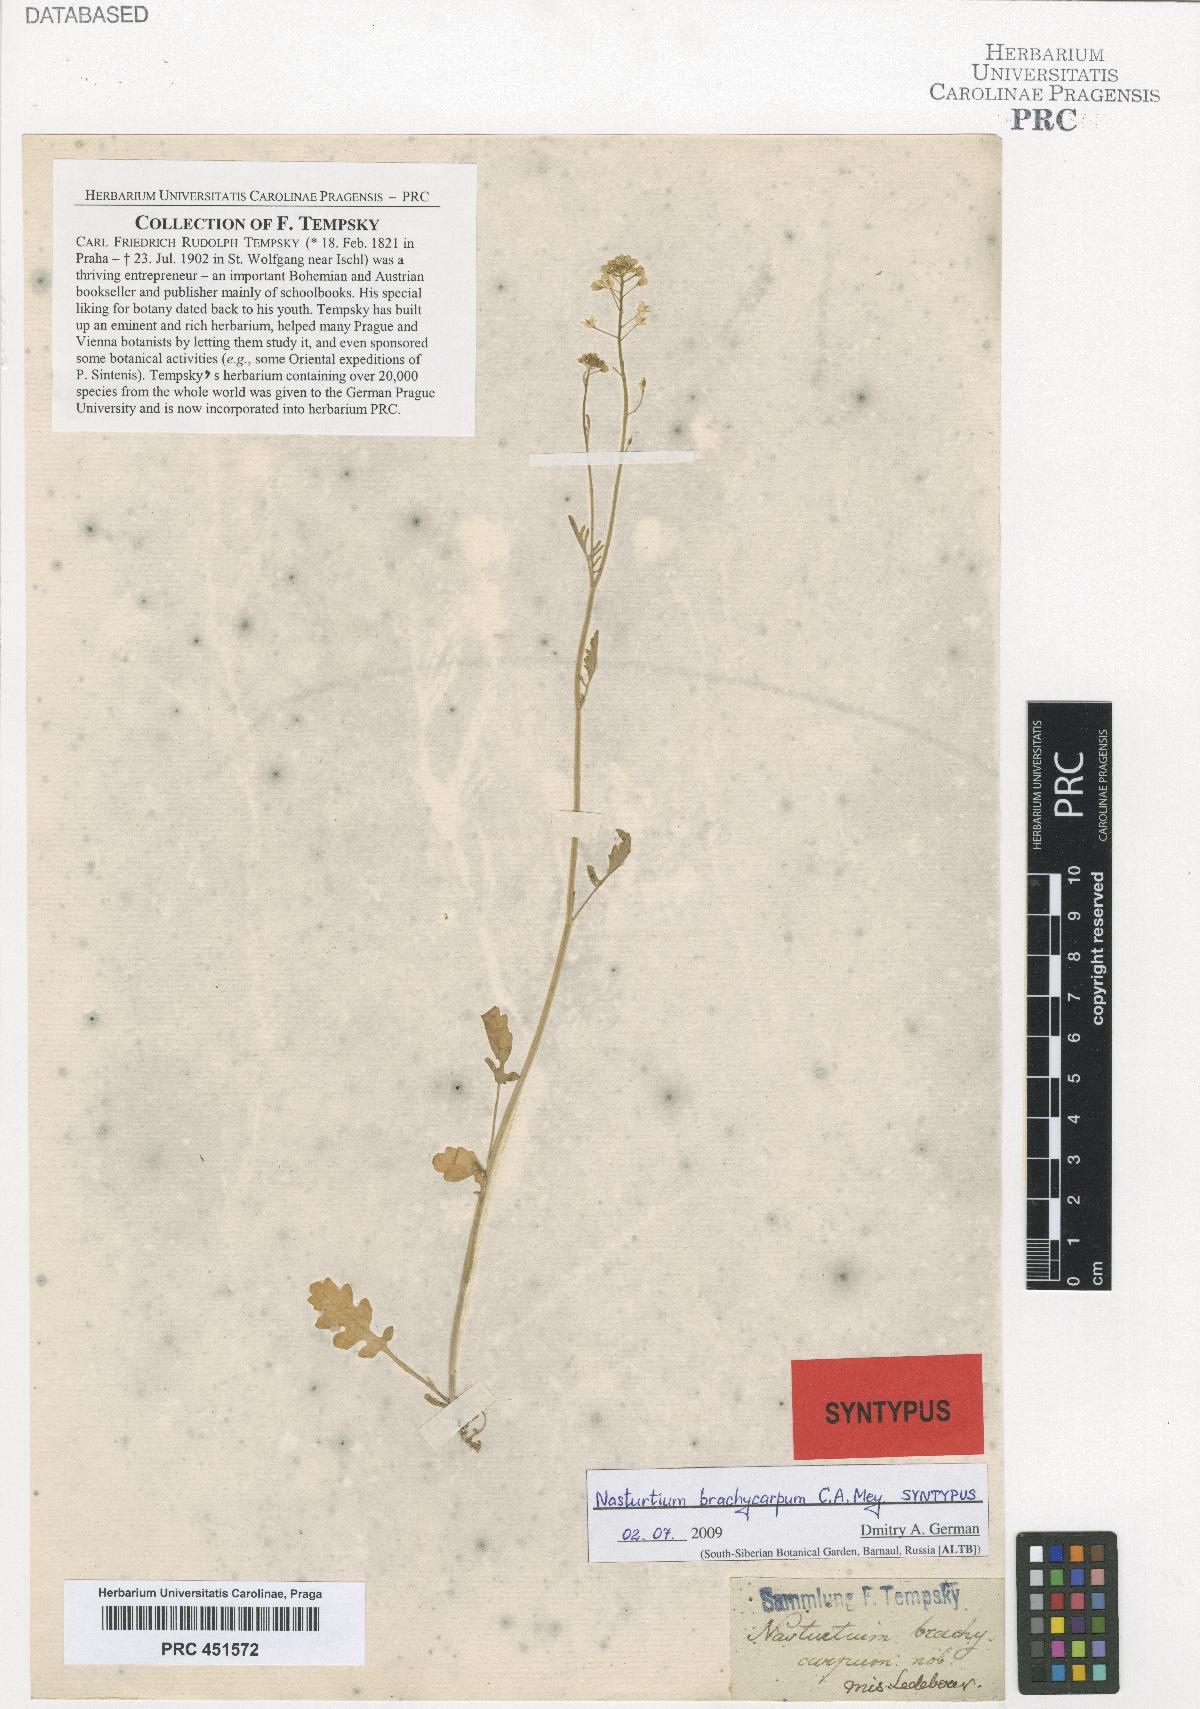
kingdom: Plantae
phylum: Tracheophyta
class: Magnoliopsida
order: Brassicales
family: Brassicaceae
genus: Rorippa
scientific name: Rorippa brachycarpa
